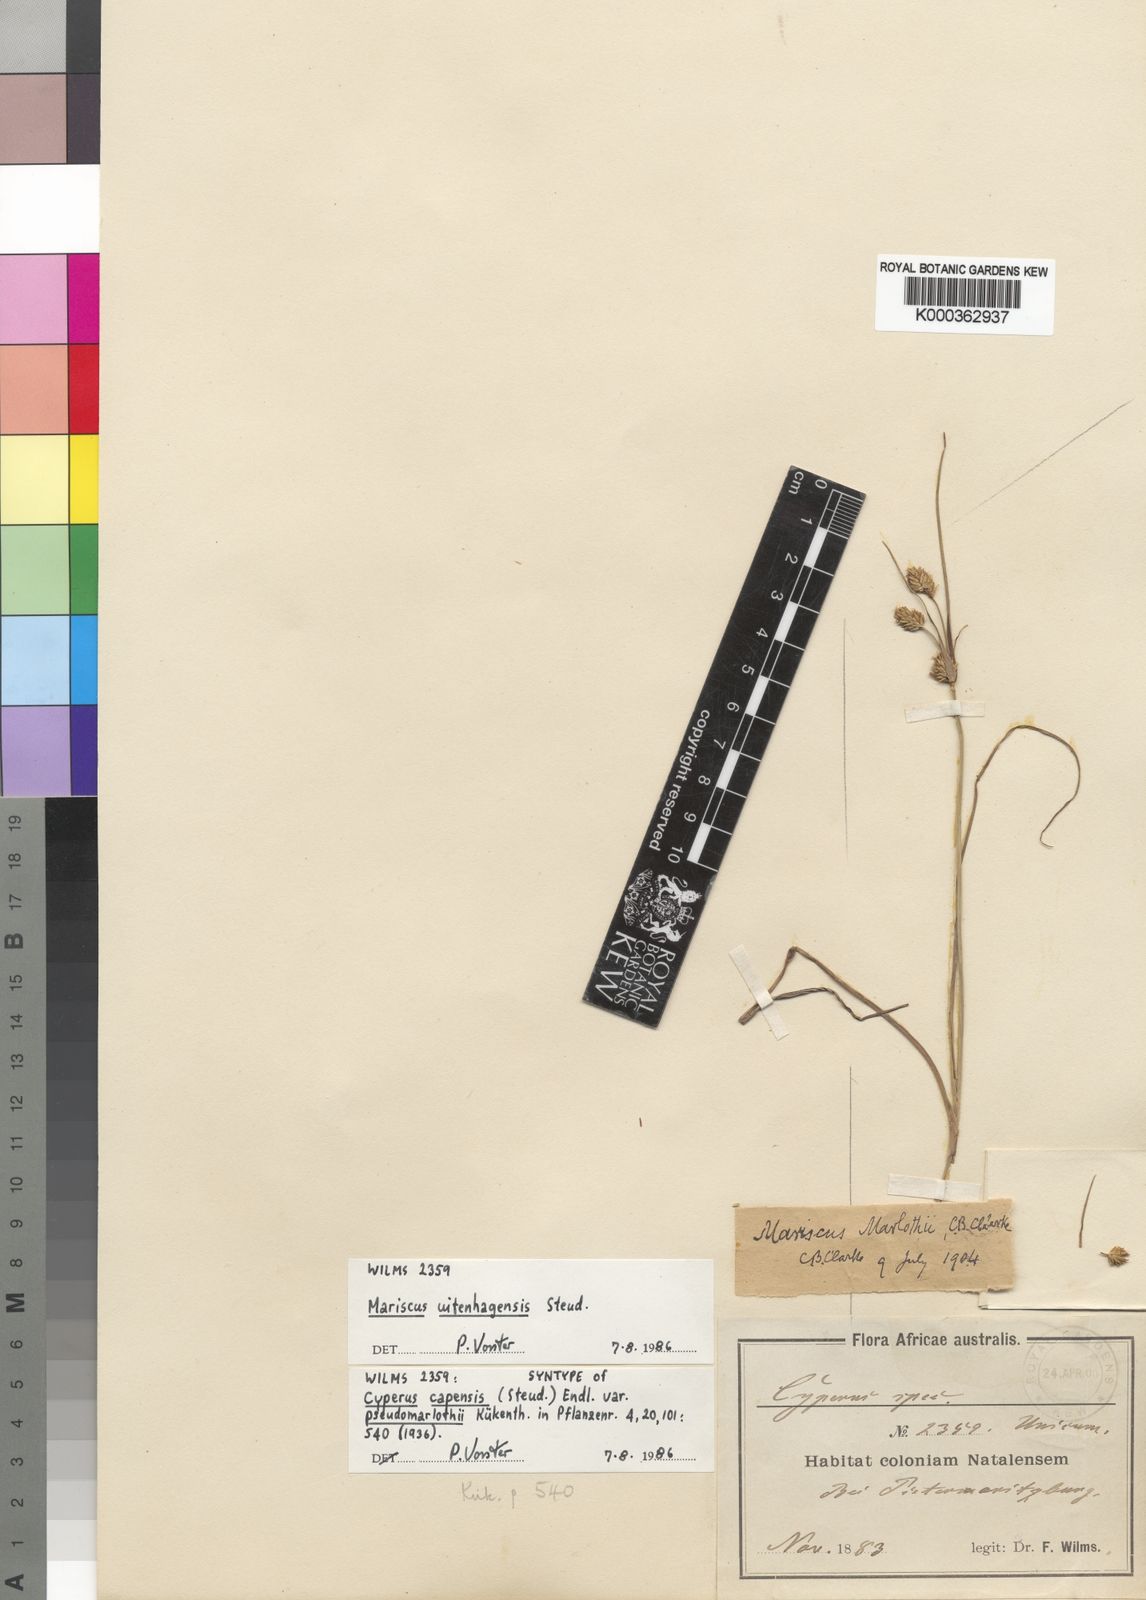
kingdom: Plantae
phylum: Tracheophyta
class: Liliopsida
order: Poales
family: Cyperaceae
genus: Cyperus
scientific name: Cyperus capensis
